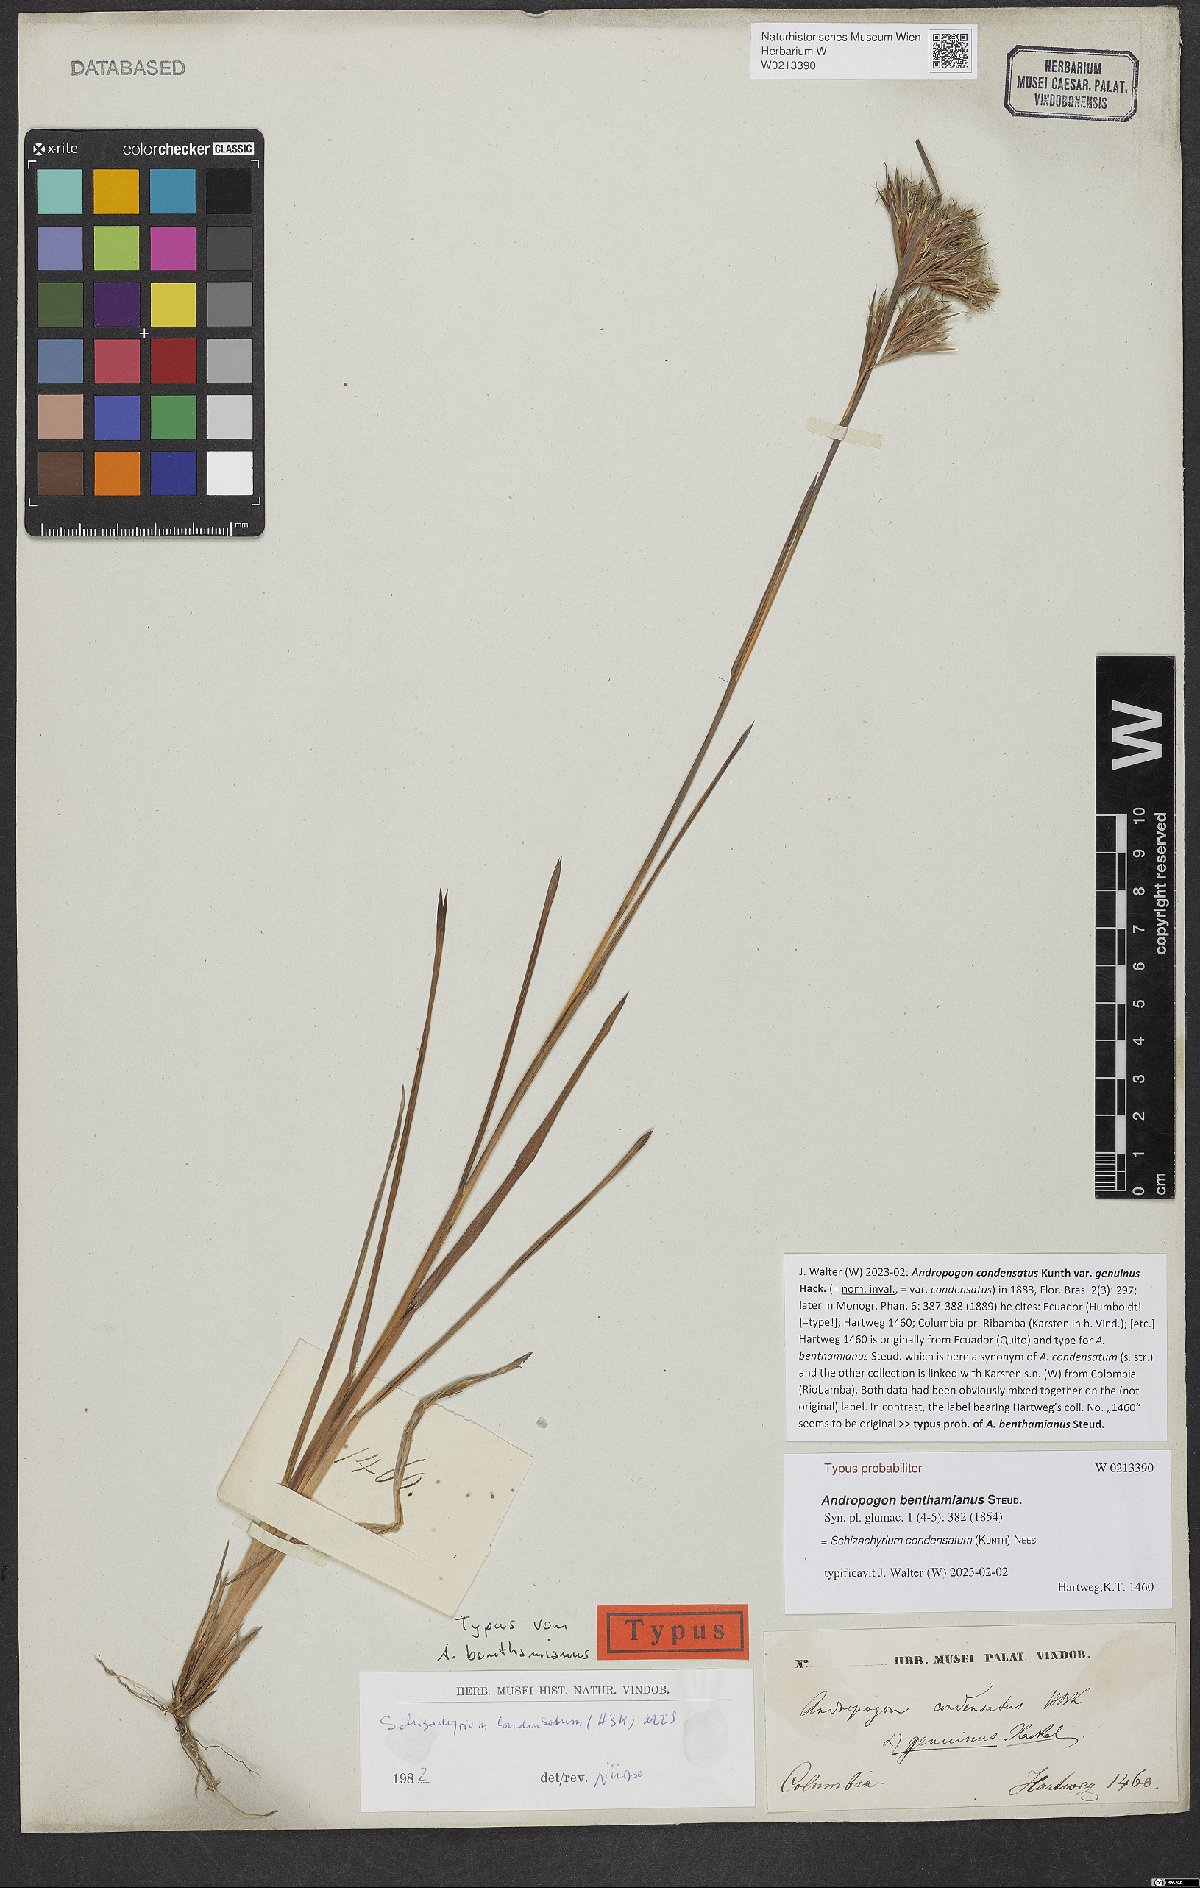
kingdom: Plantae
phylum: Tracheophyta
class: Liliopsida
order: Poales
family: Poaceae
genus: Schizachyrium
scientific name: Schizachyrium microstachyum
